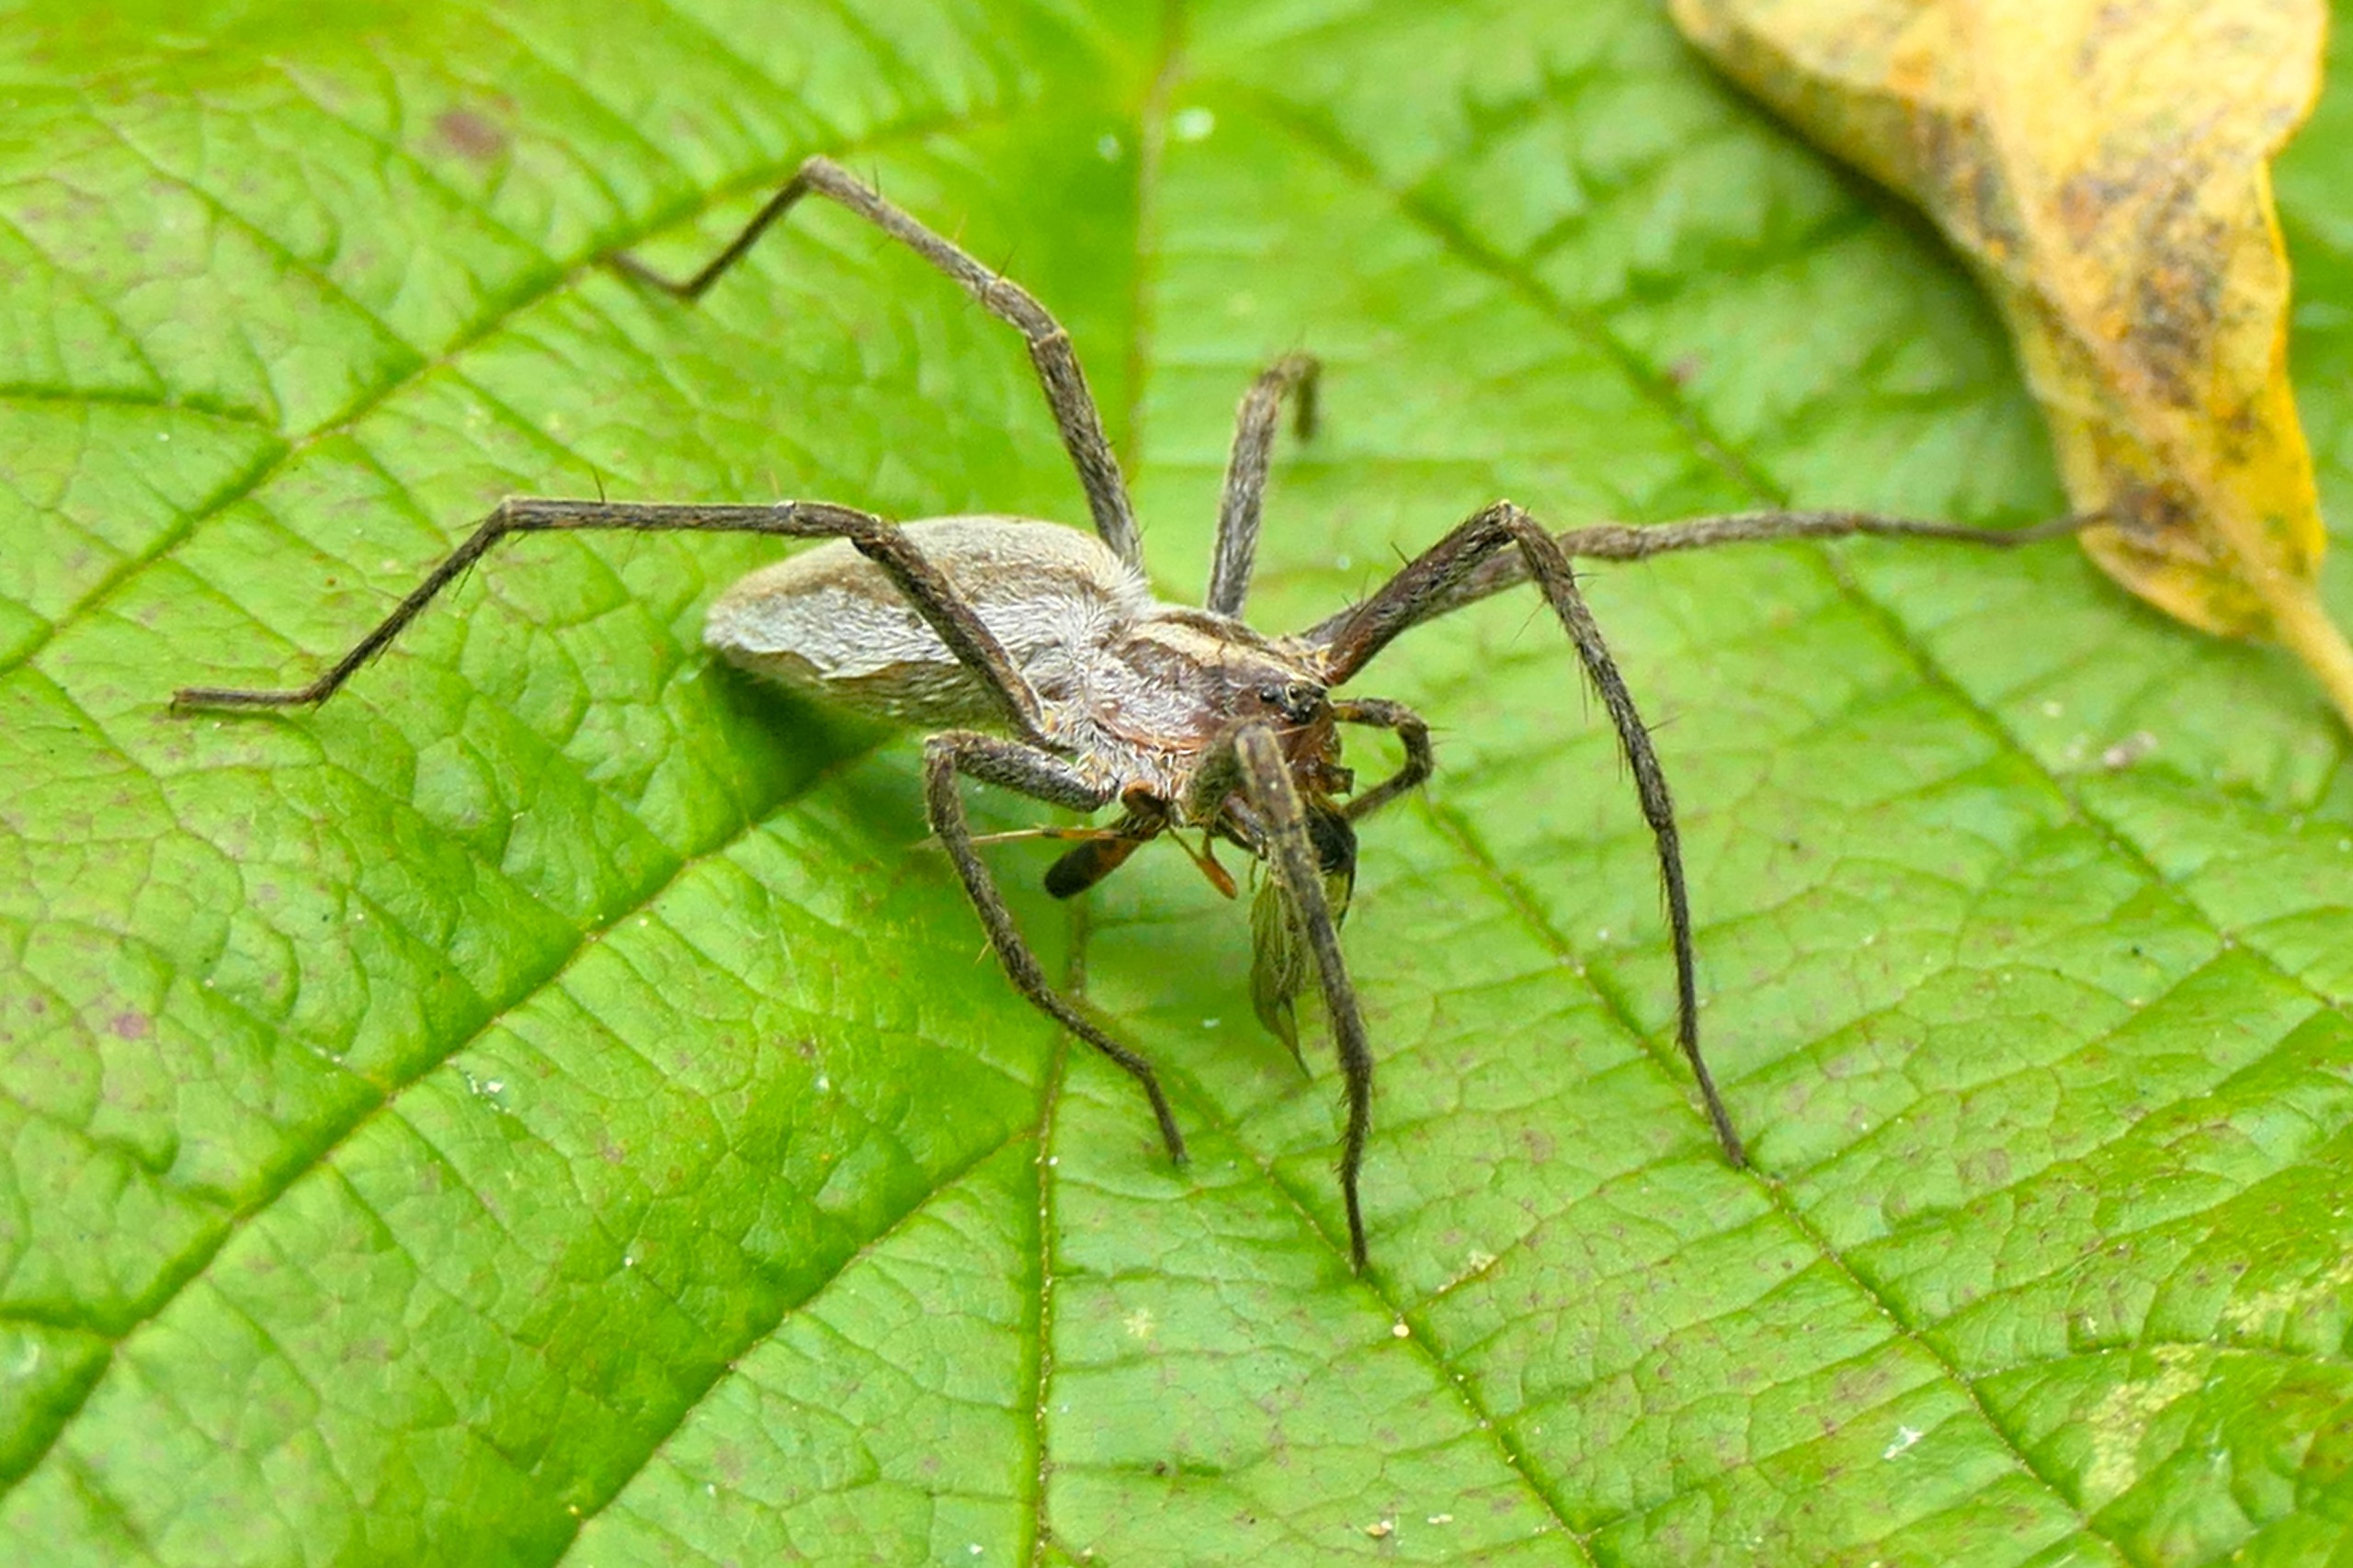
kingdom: Animalia
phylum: Arthropoda
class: Arachnida
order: Araneae
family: Pisauridae
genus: Pisaura
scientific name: Pisaura mirabilis
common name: Almindelig rovedderkop
